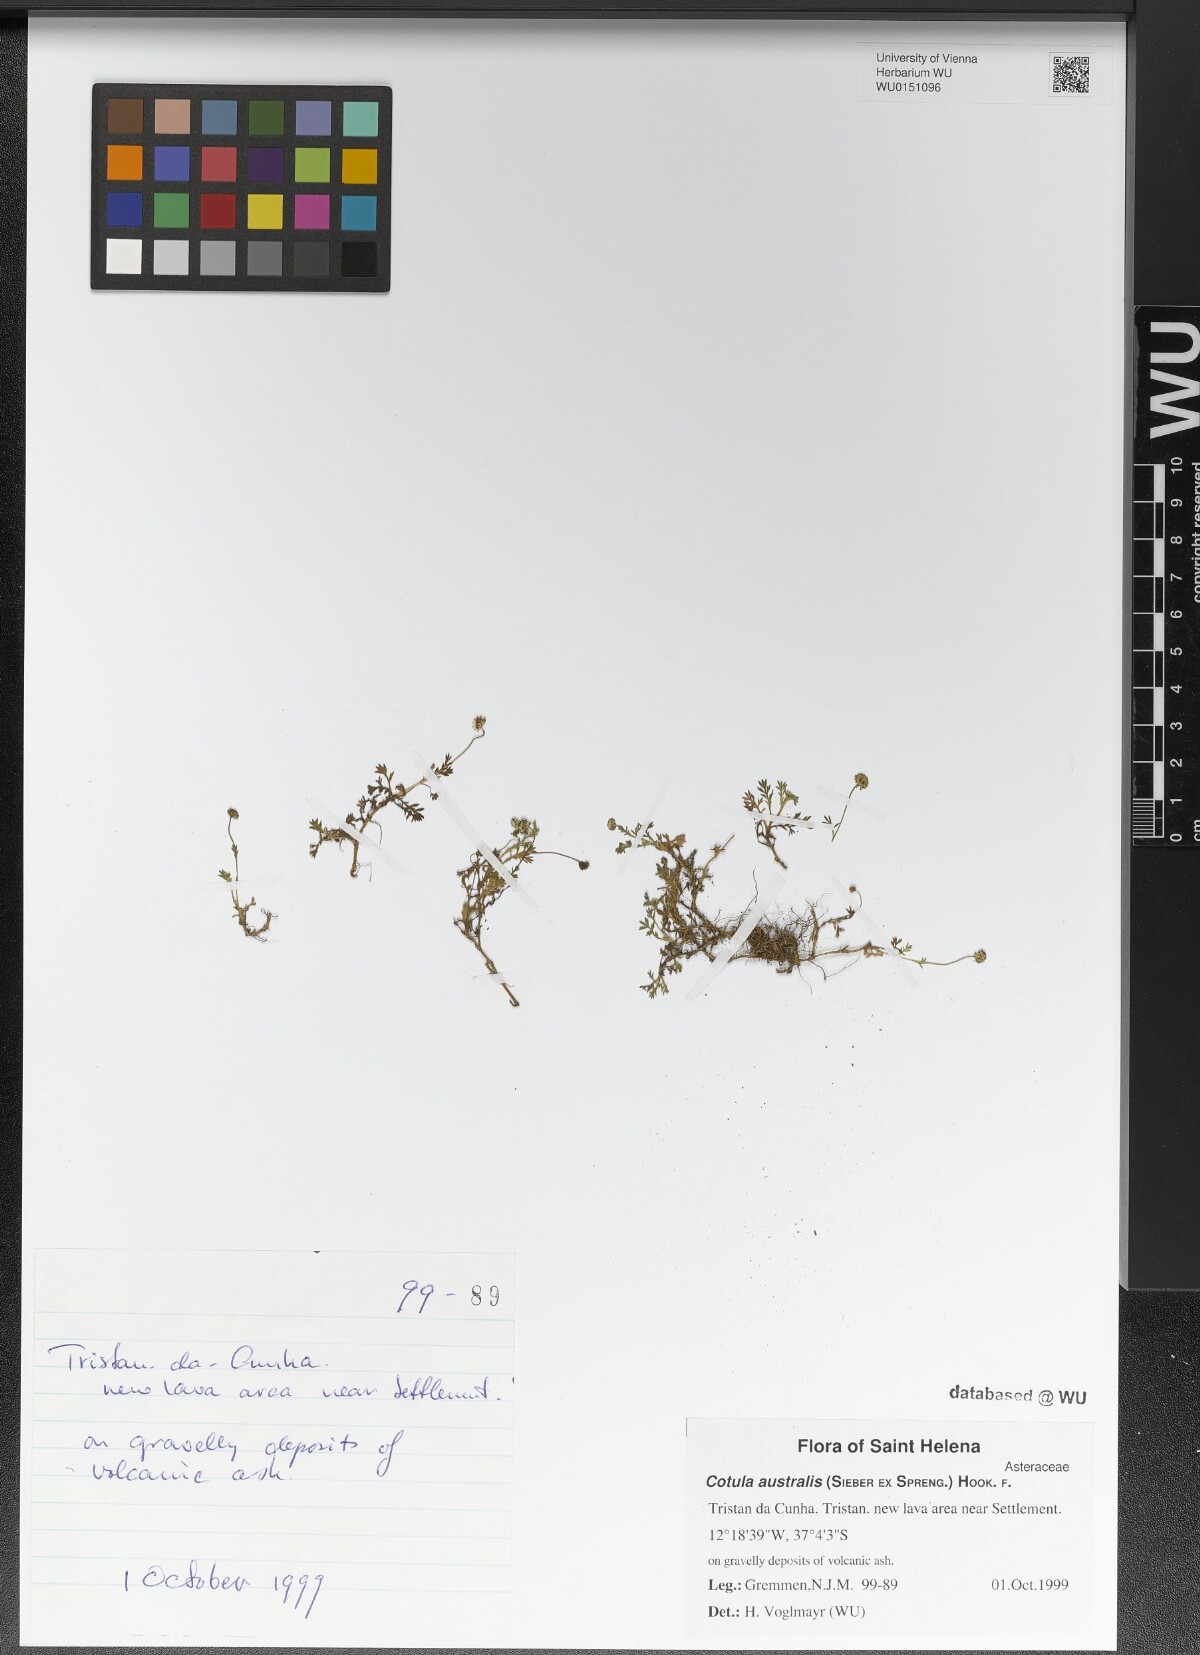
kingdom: Plantae
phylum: Tracheophyta
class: Magnoliopsida
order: Asterales
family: Asteraceae
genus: Cotula
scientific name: Cotula australis
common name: Australian waterbuttons
